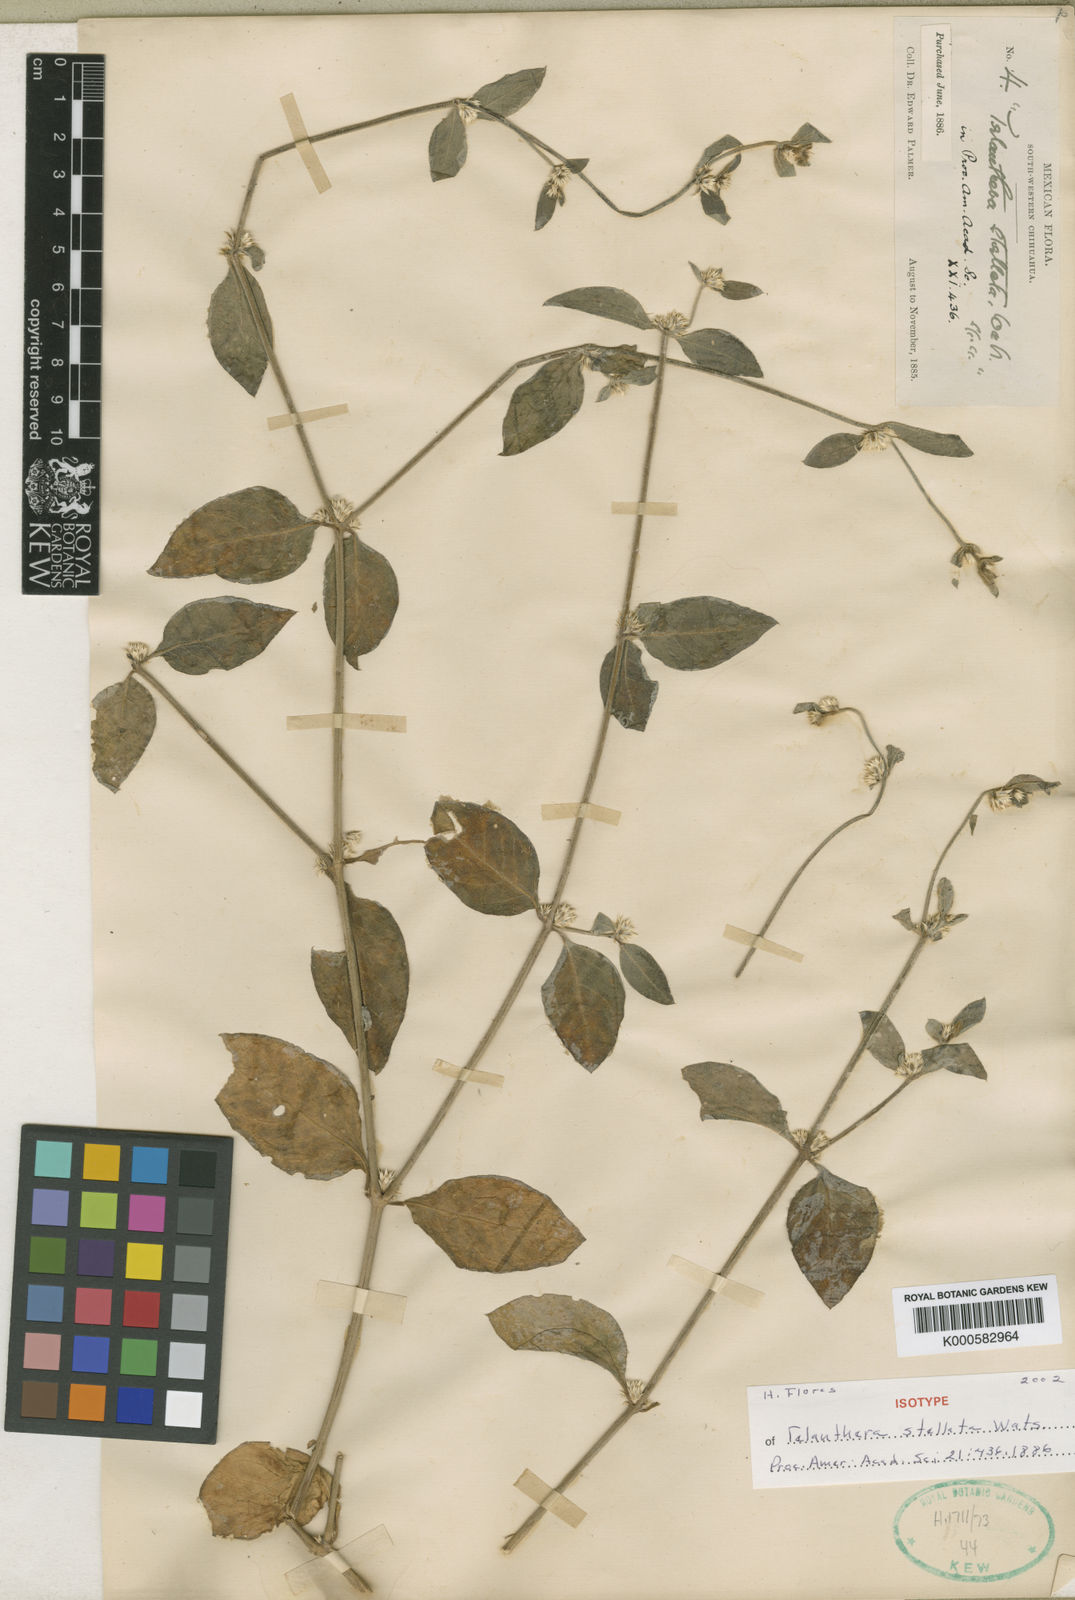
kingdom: Plantae
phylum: Tracheophyta
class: Magnoliopsida
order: Caryophyllales
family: Amaranthaceae
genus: Alternanthera
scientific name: Alternanthera stellata
